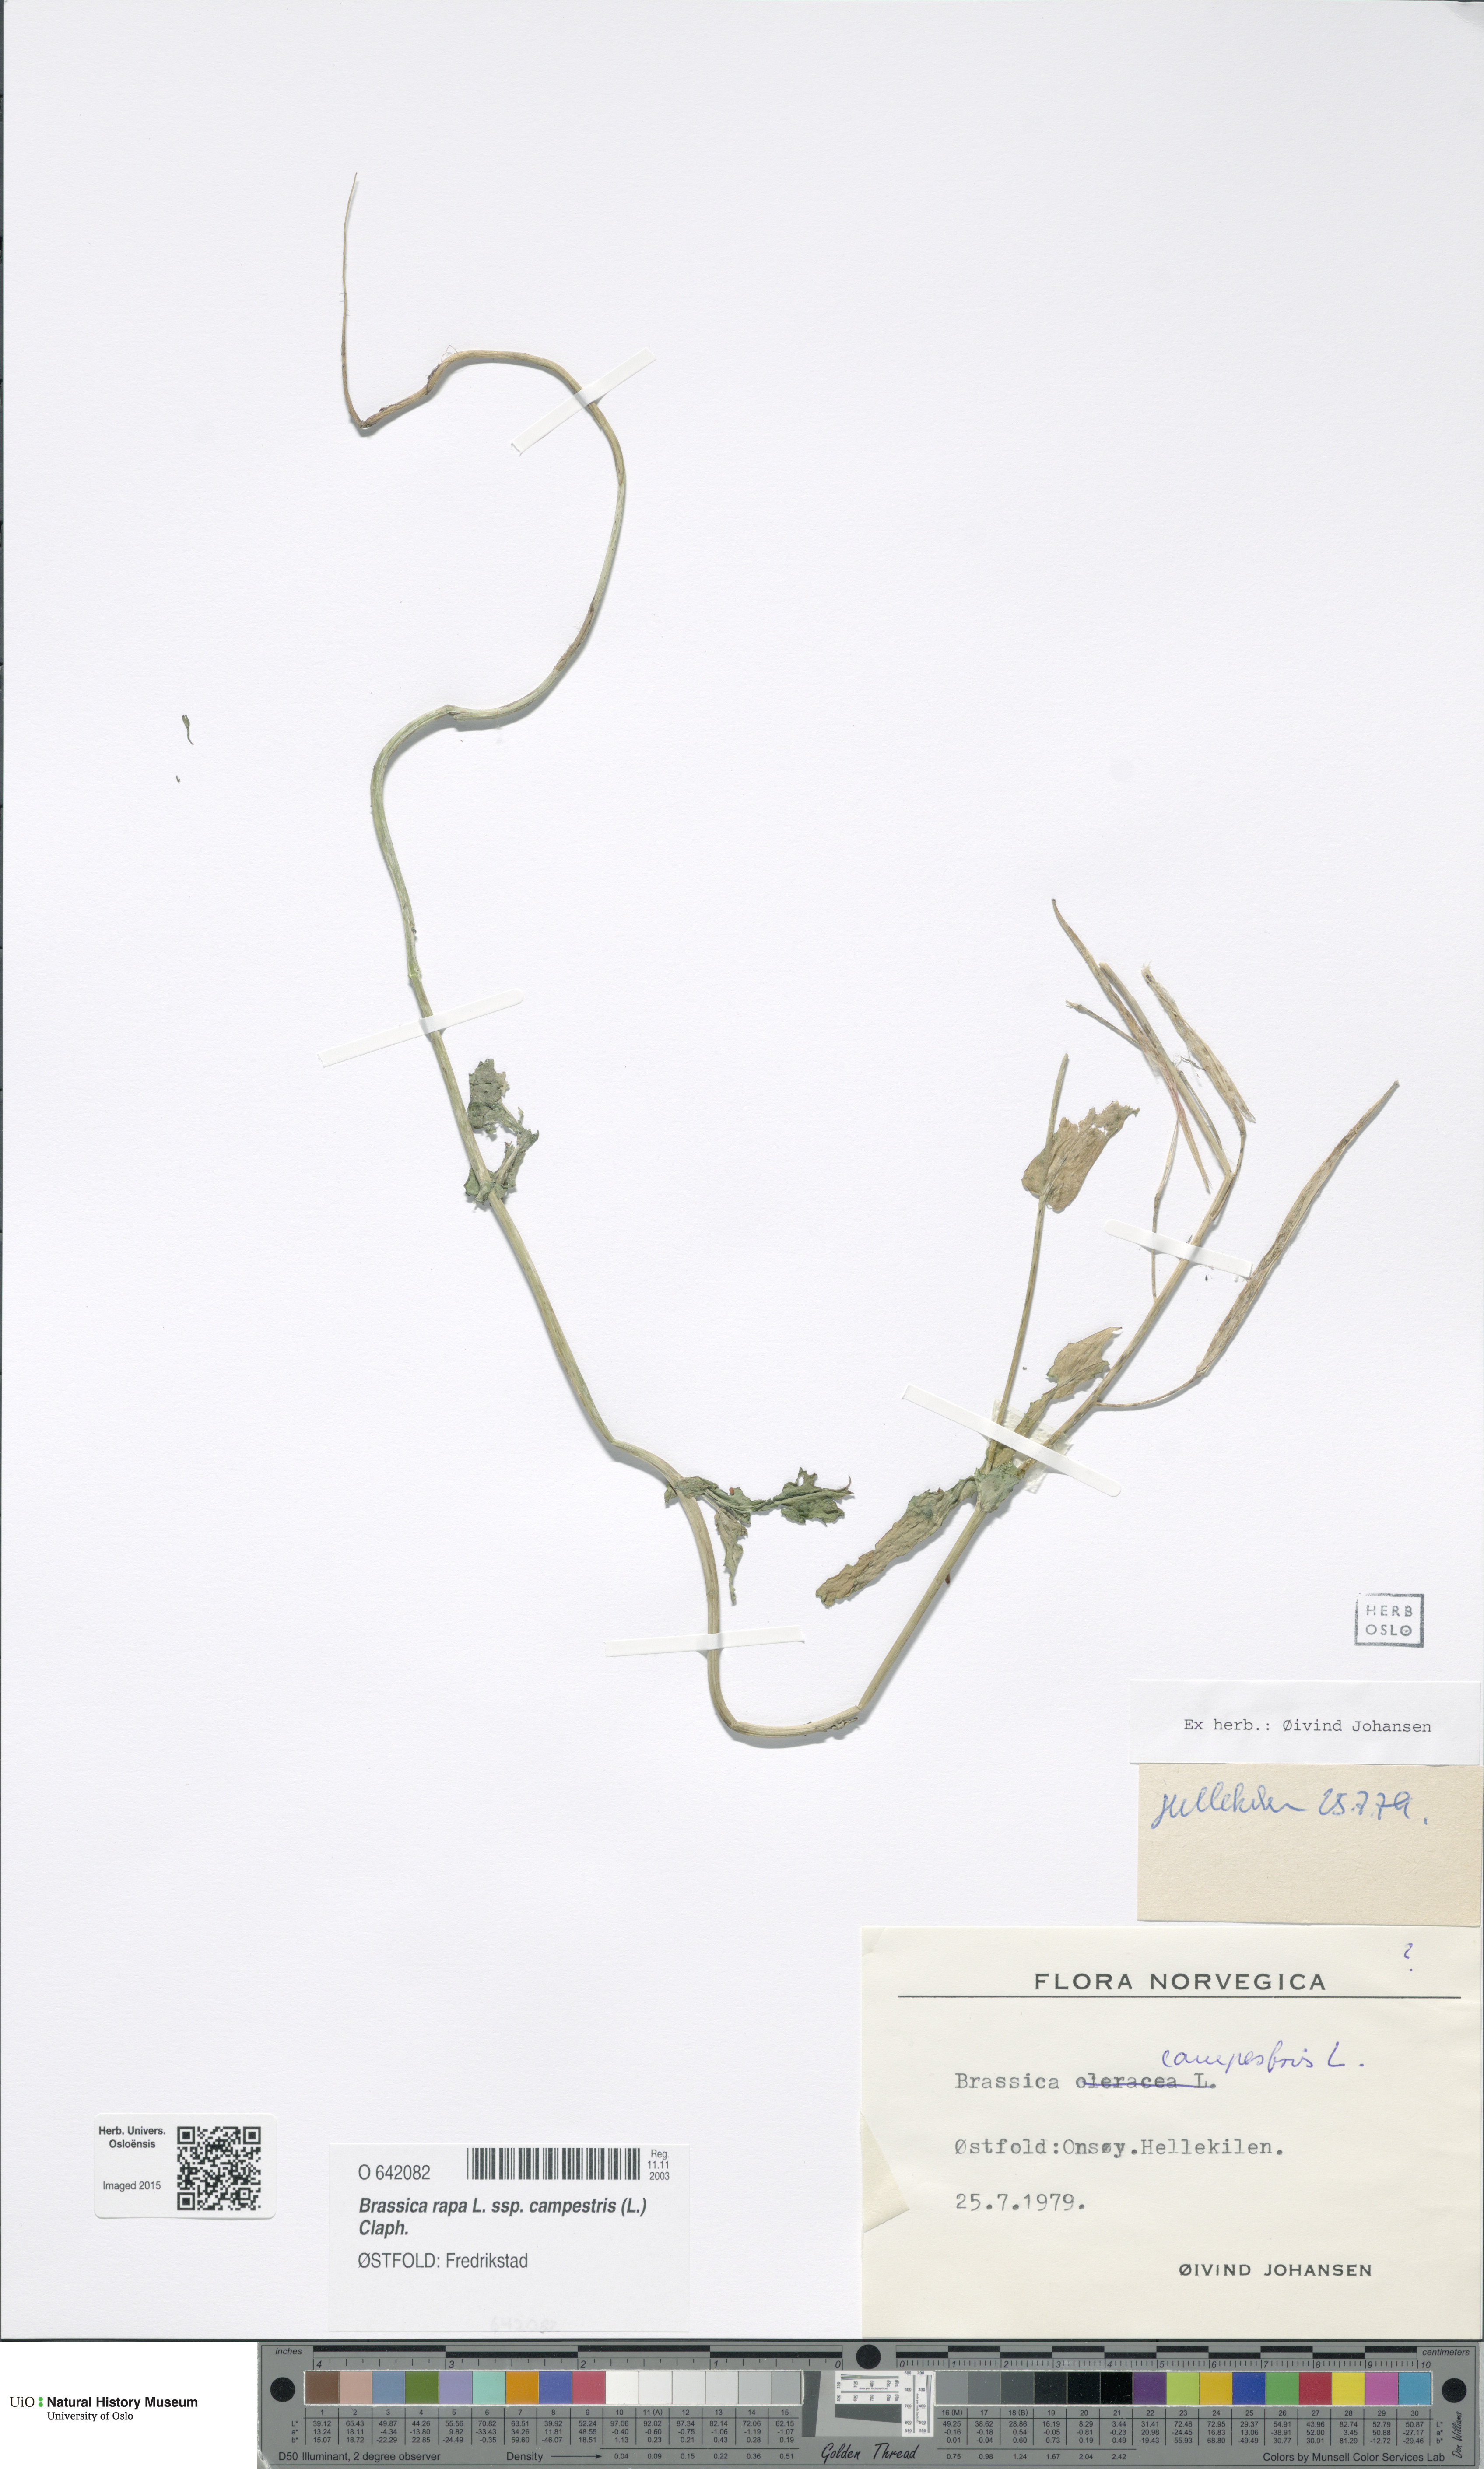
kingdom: Plantae
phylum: Tracheophyta
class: Magnoliopsida
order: Brassicales
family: Brassicaceae
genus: Brassica
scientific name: Brassica rapa
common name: Field mustard
